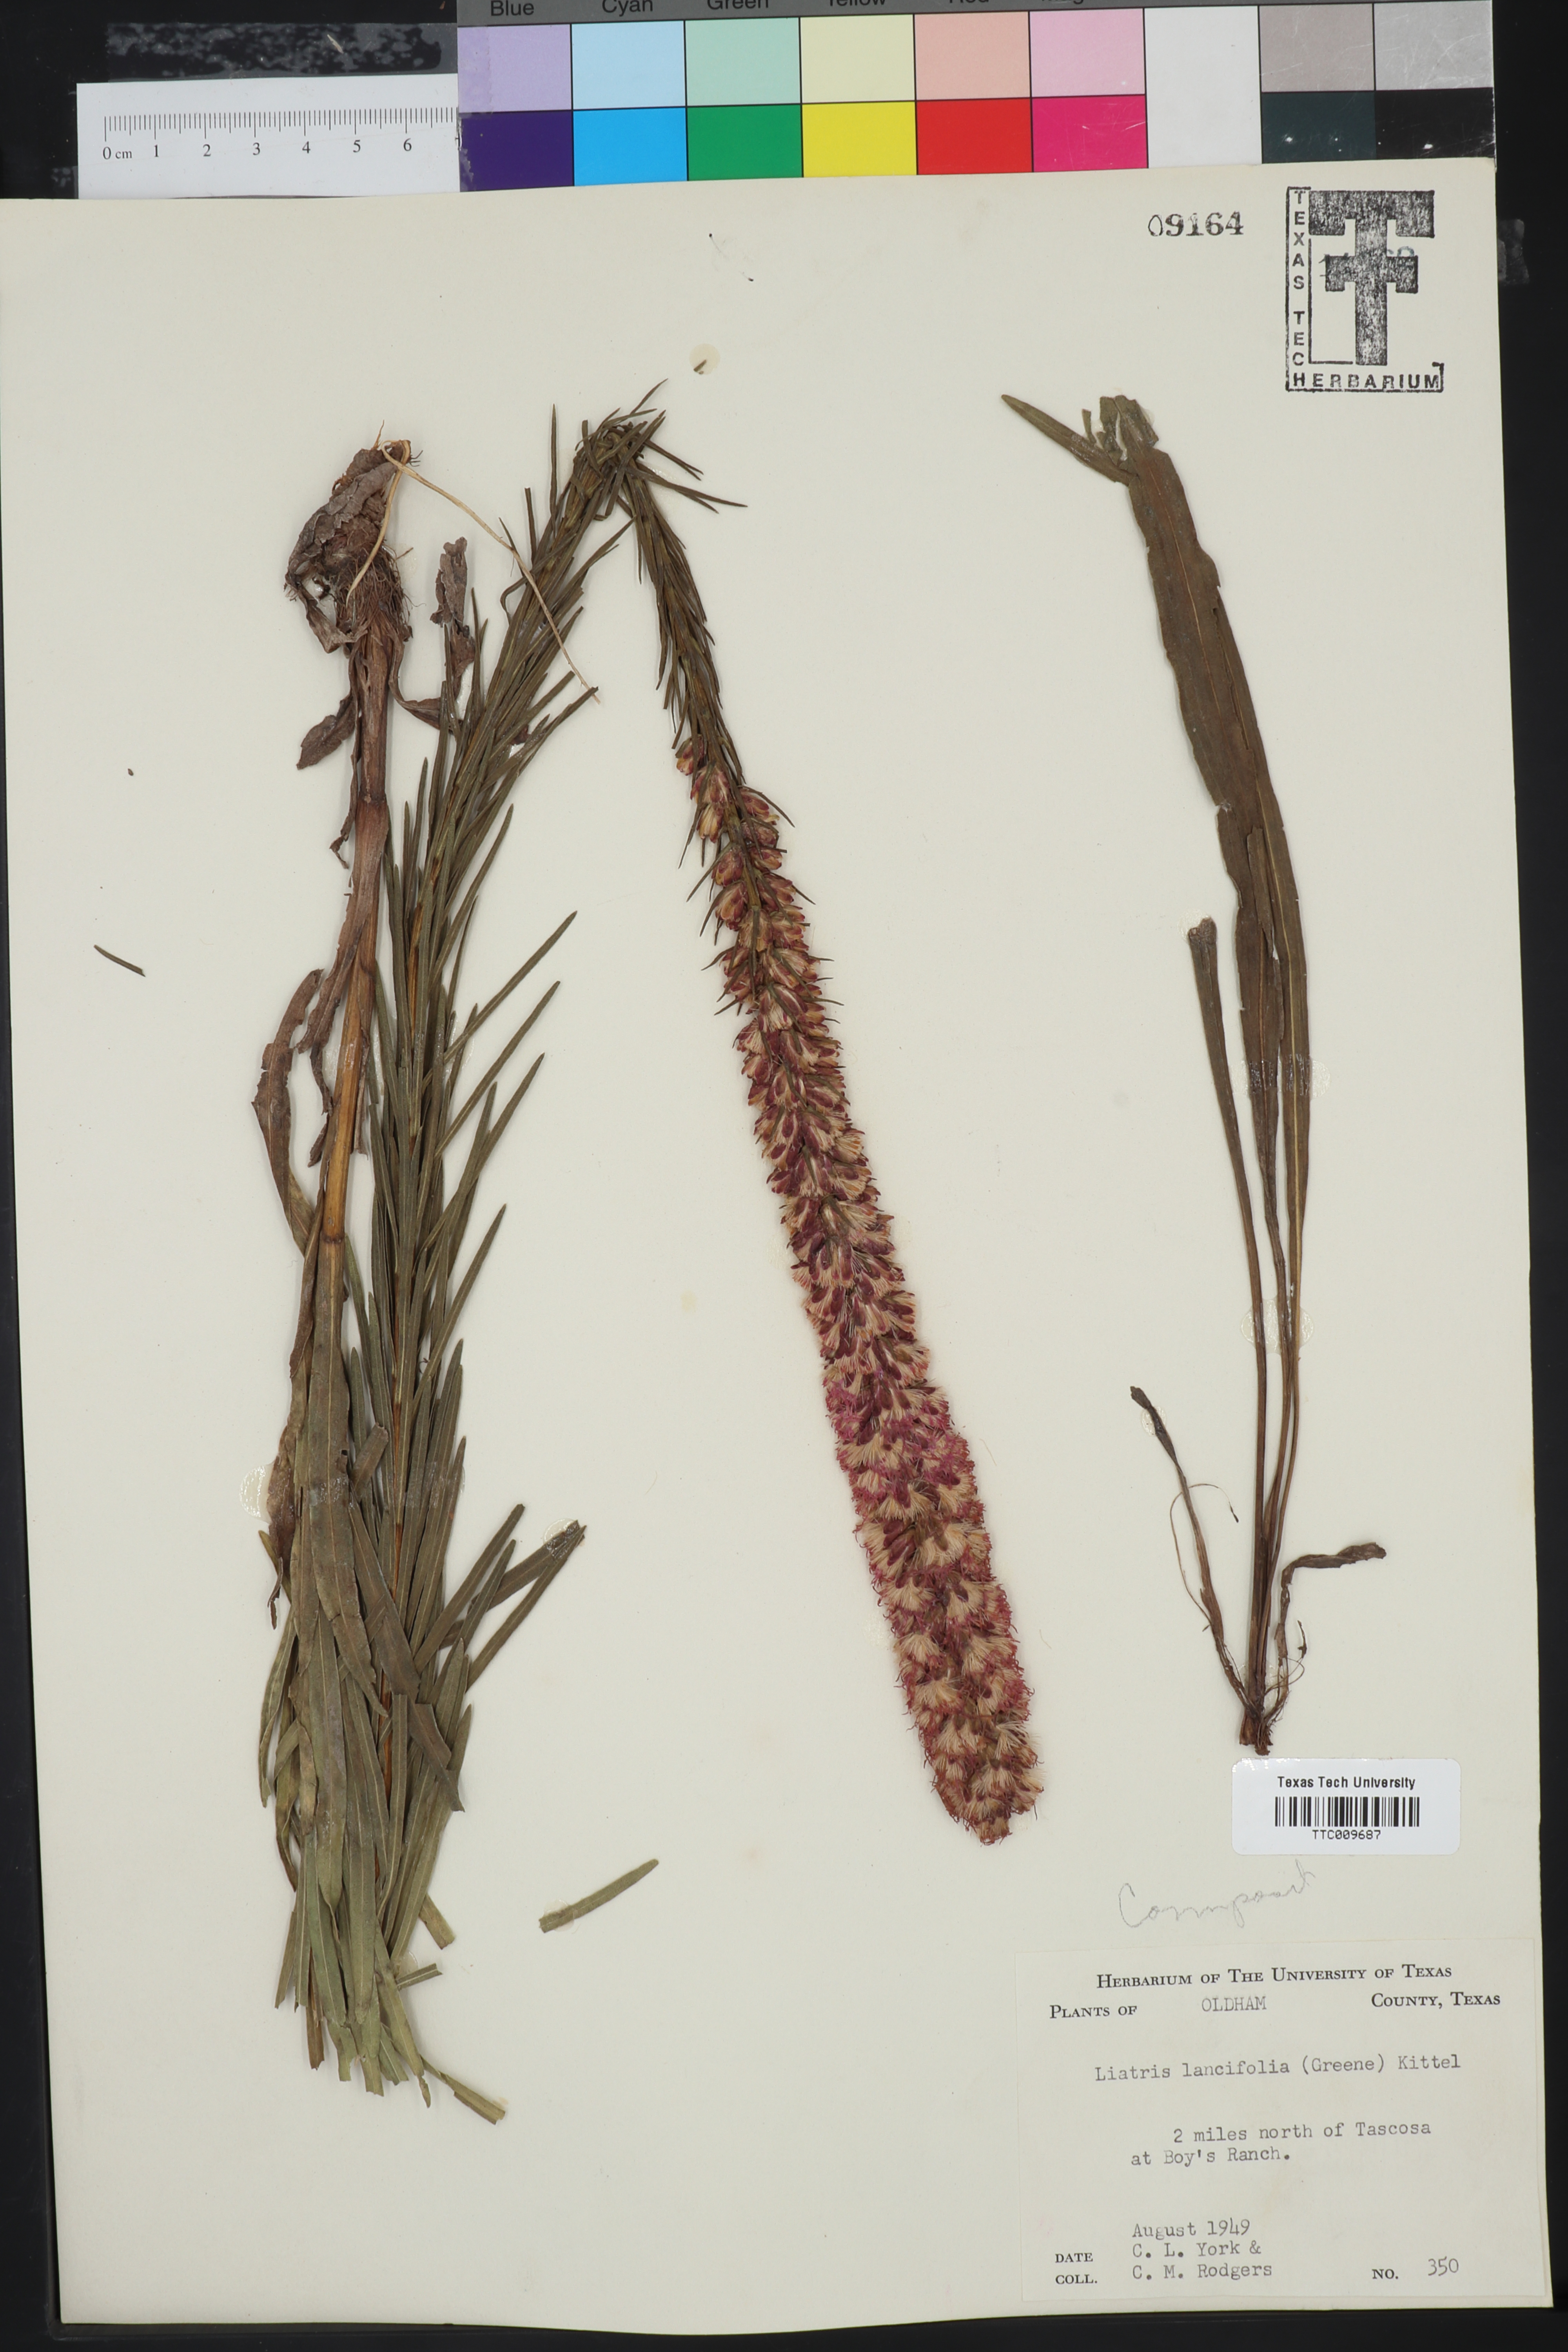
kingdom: Plantae
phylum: Tracheophyta
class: Magnoliopsida
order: Asterales
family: Asteraceae
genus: Liatris
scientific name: Liatris lancifolia
